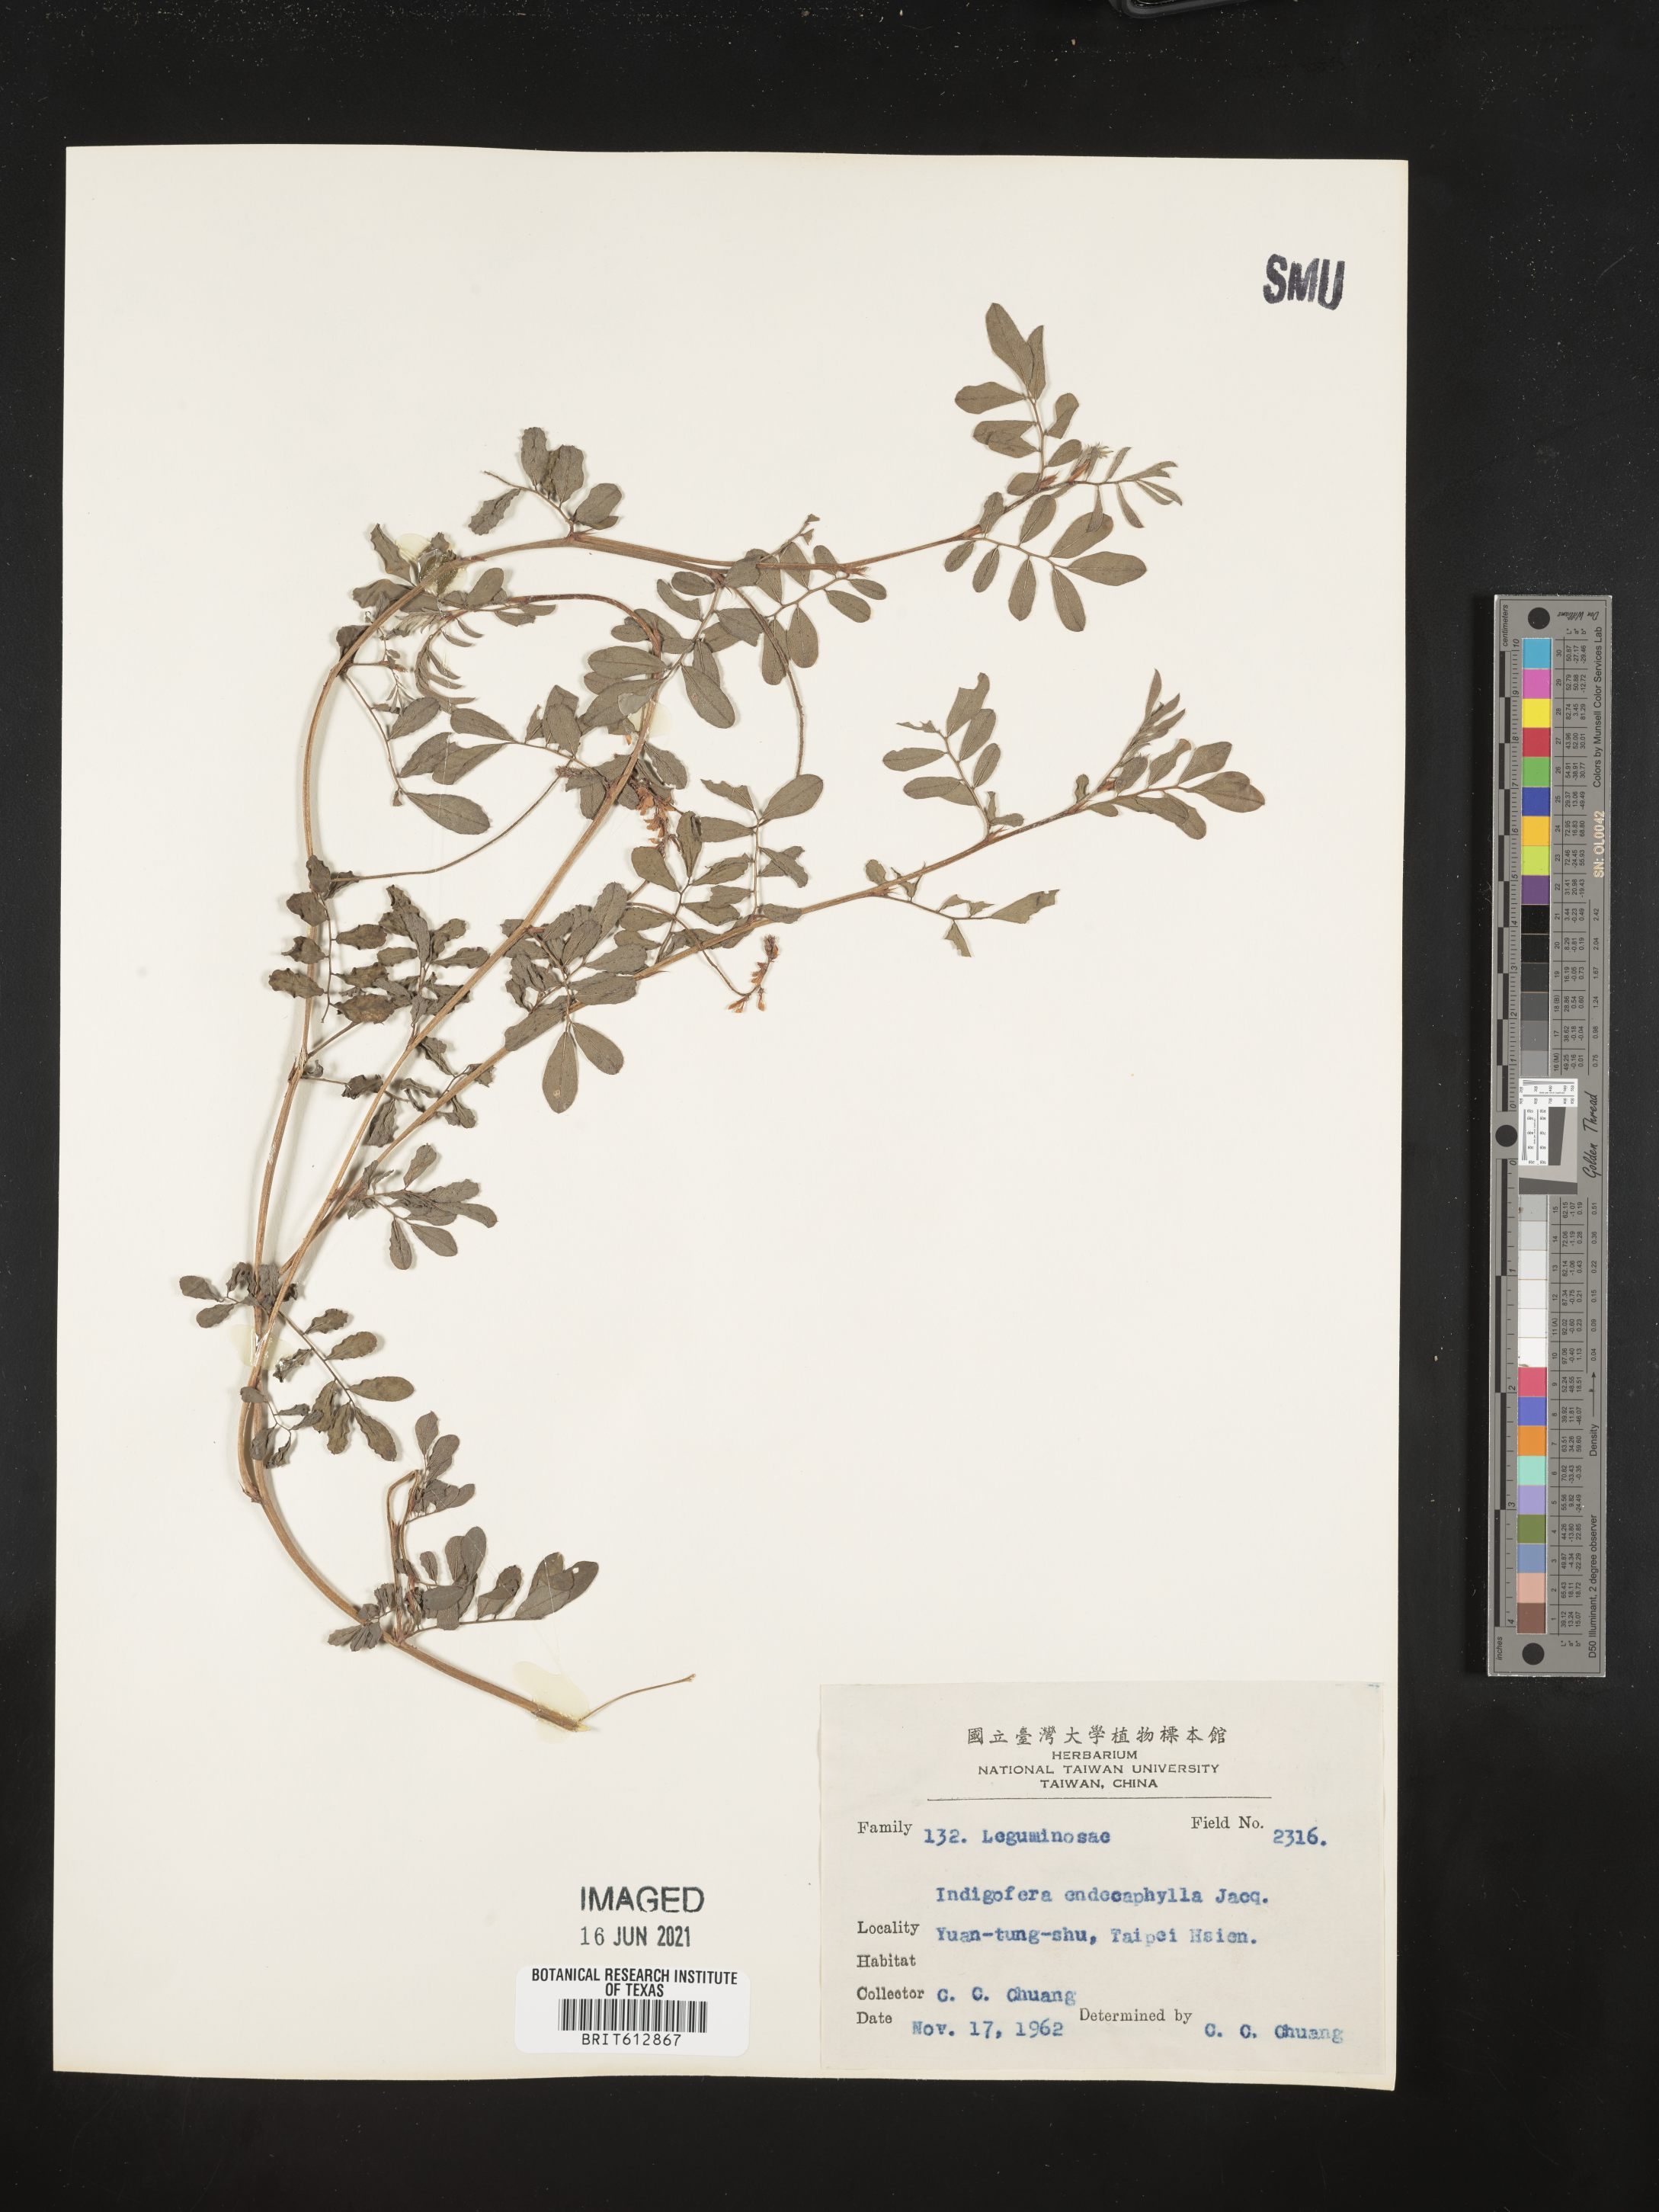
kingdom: Plantae
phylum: Tracheophyta
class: Magnoliopsida
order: Fabales
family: Fabaceae
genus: Indigofera
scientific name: Indigofera hendecaphylla
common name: Trailing indigo
